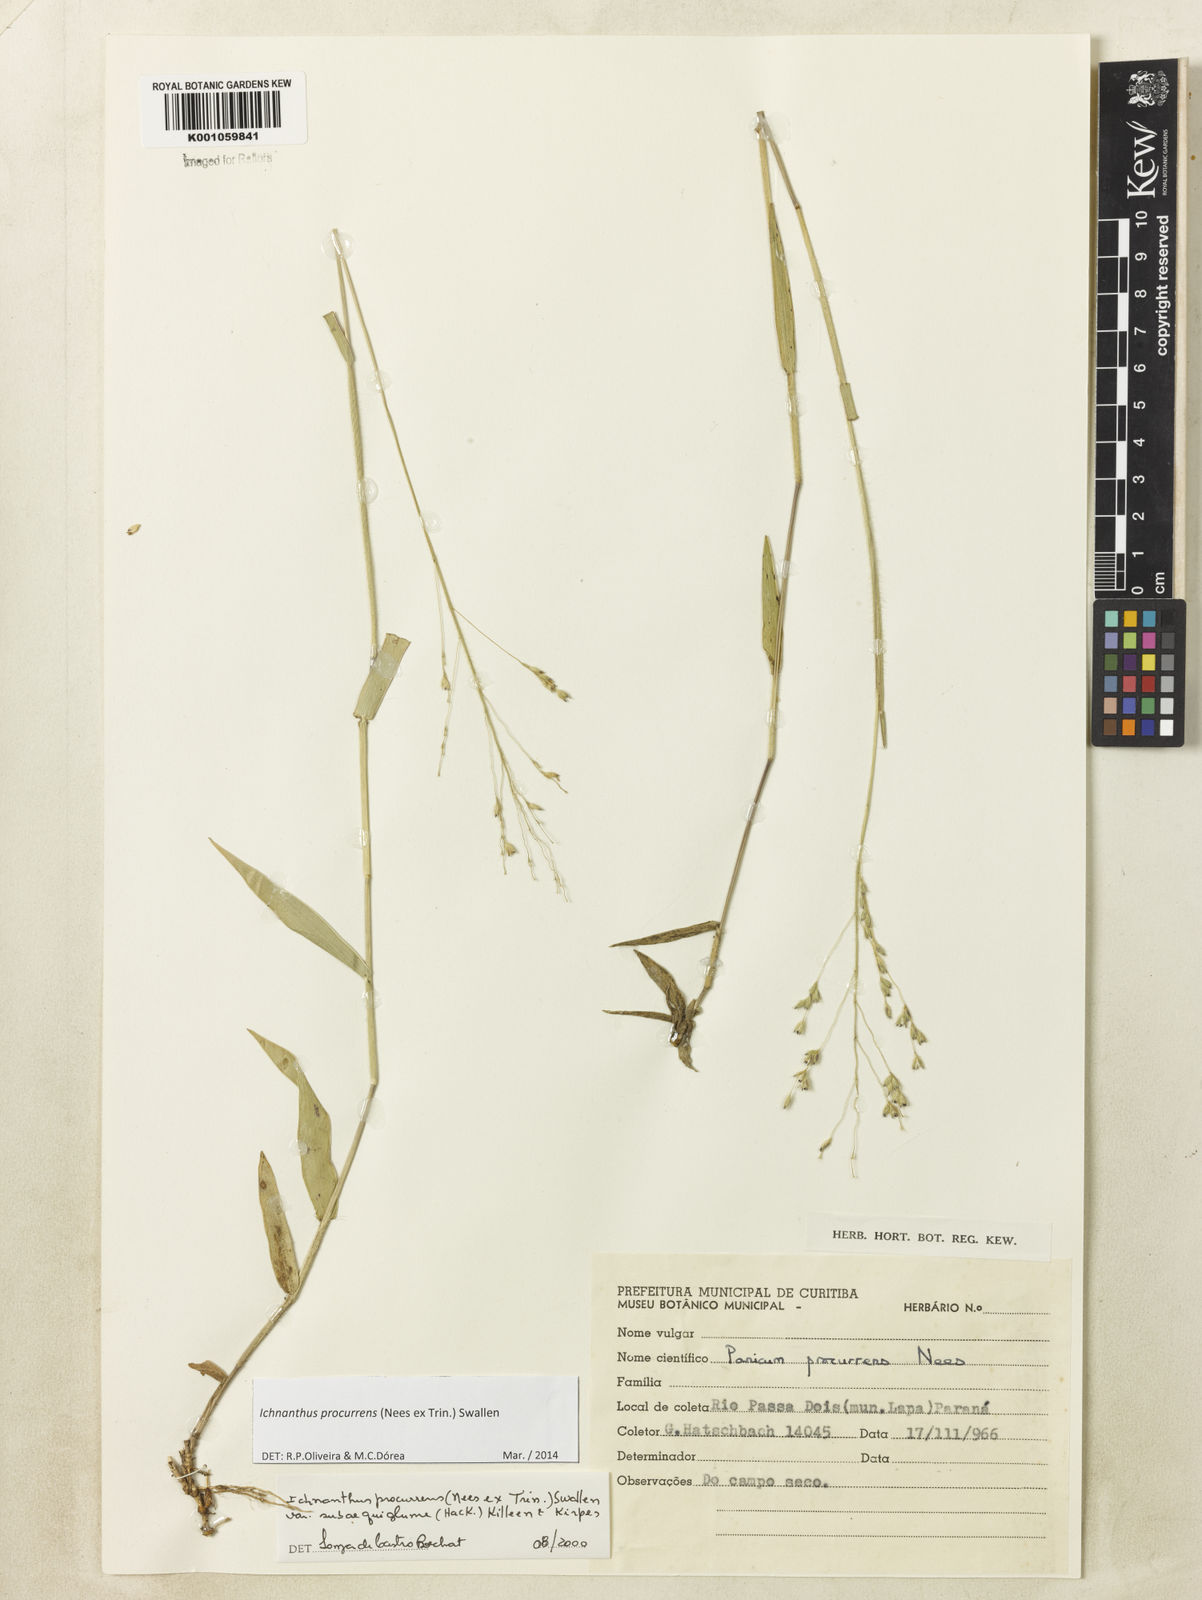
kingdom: Plantae
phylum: Tracheophyta
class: Liliopsida
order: Poales
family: Poaceae
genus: Oedochloa
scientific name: Oedochloa procurrens
